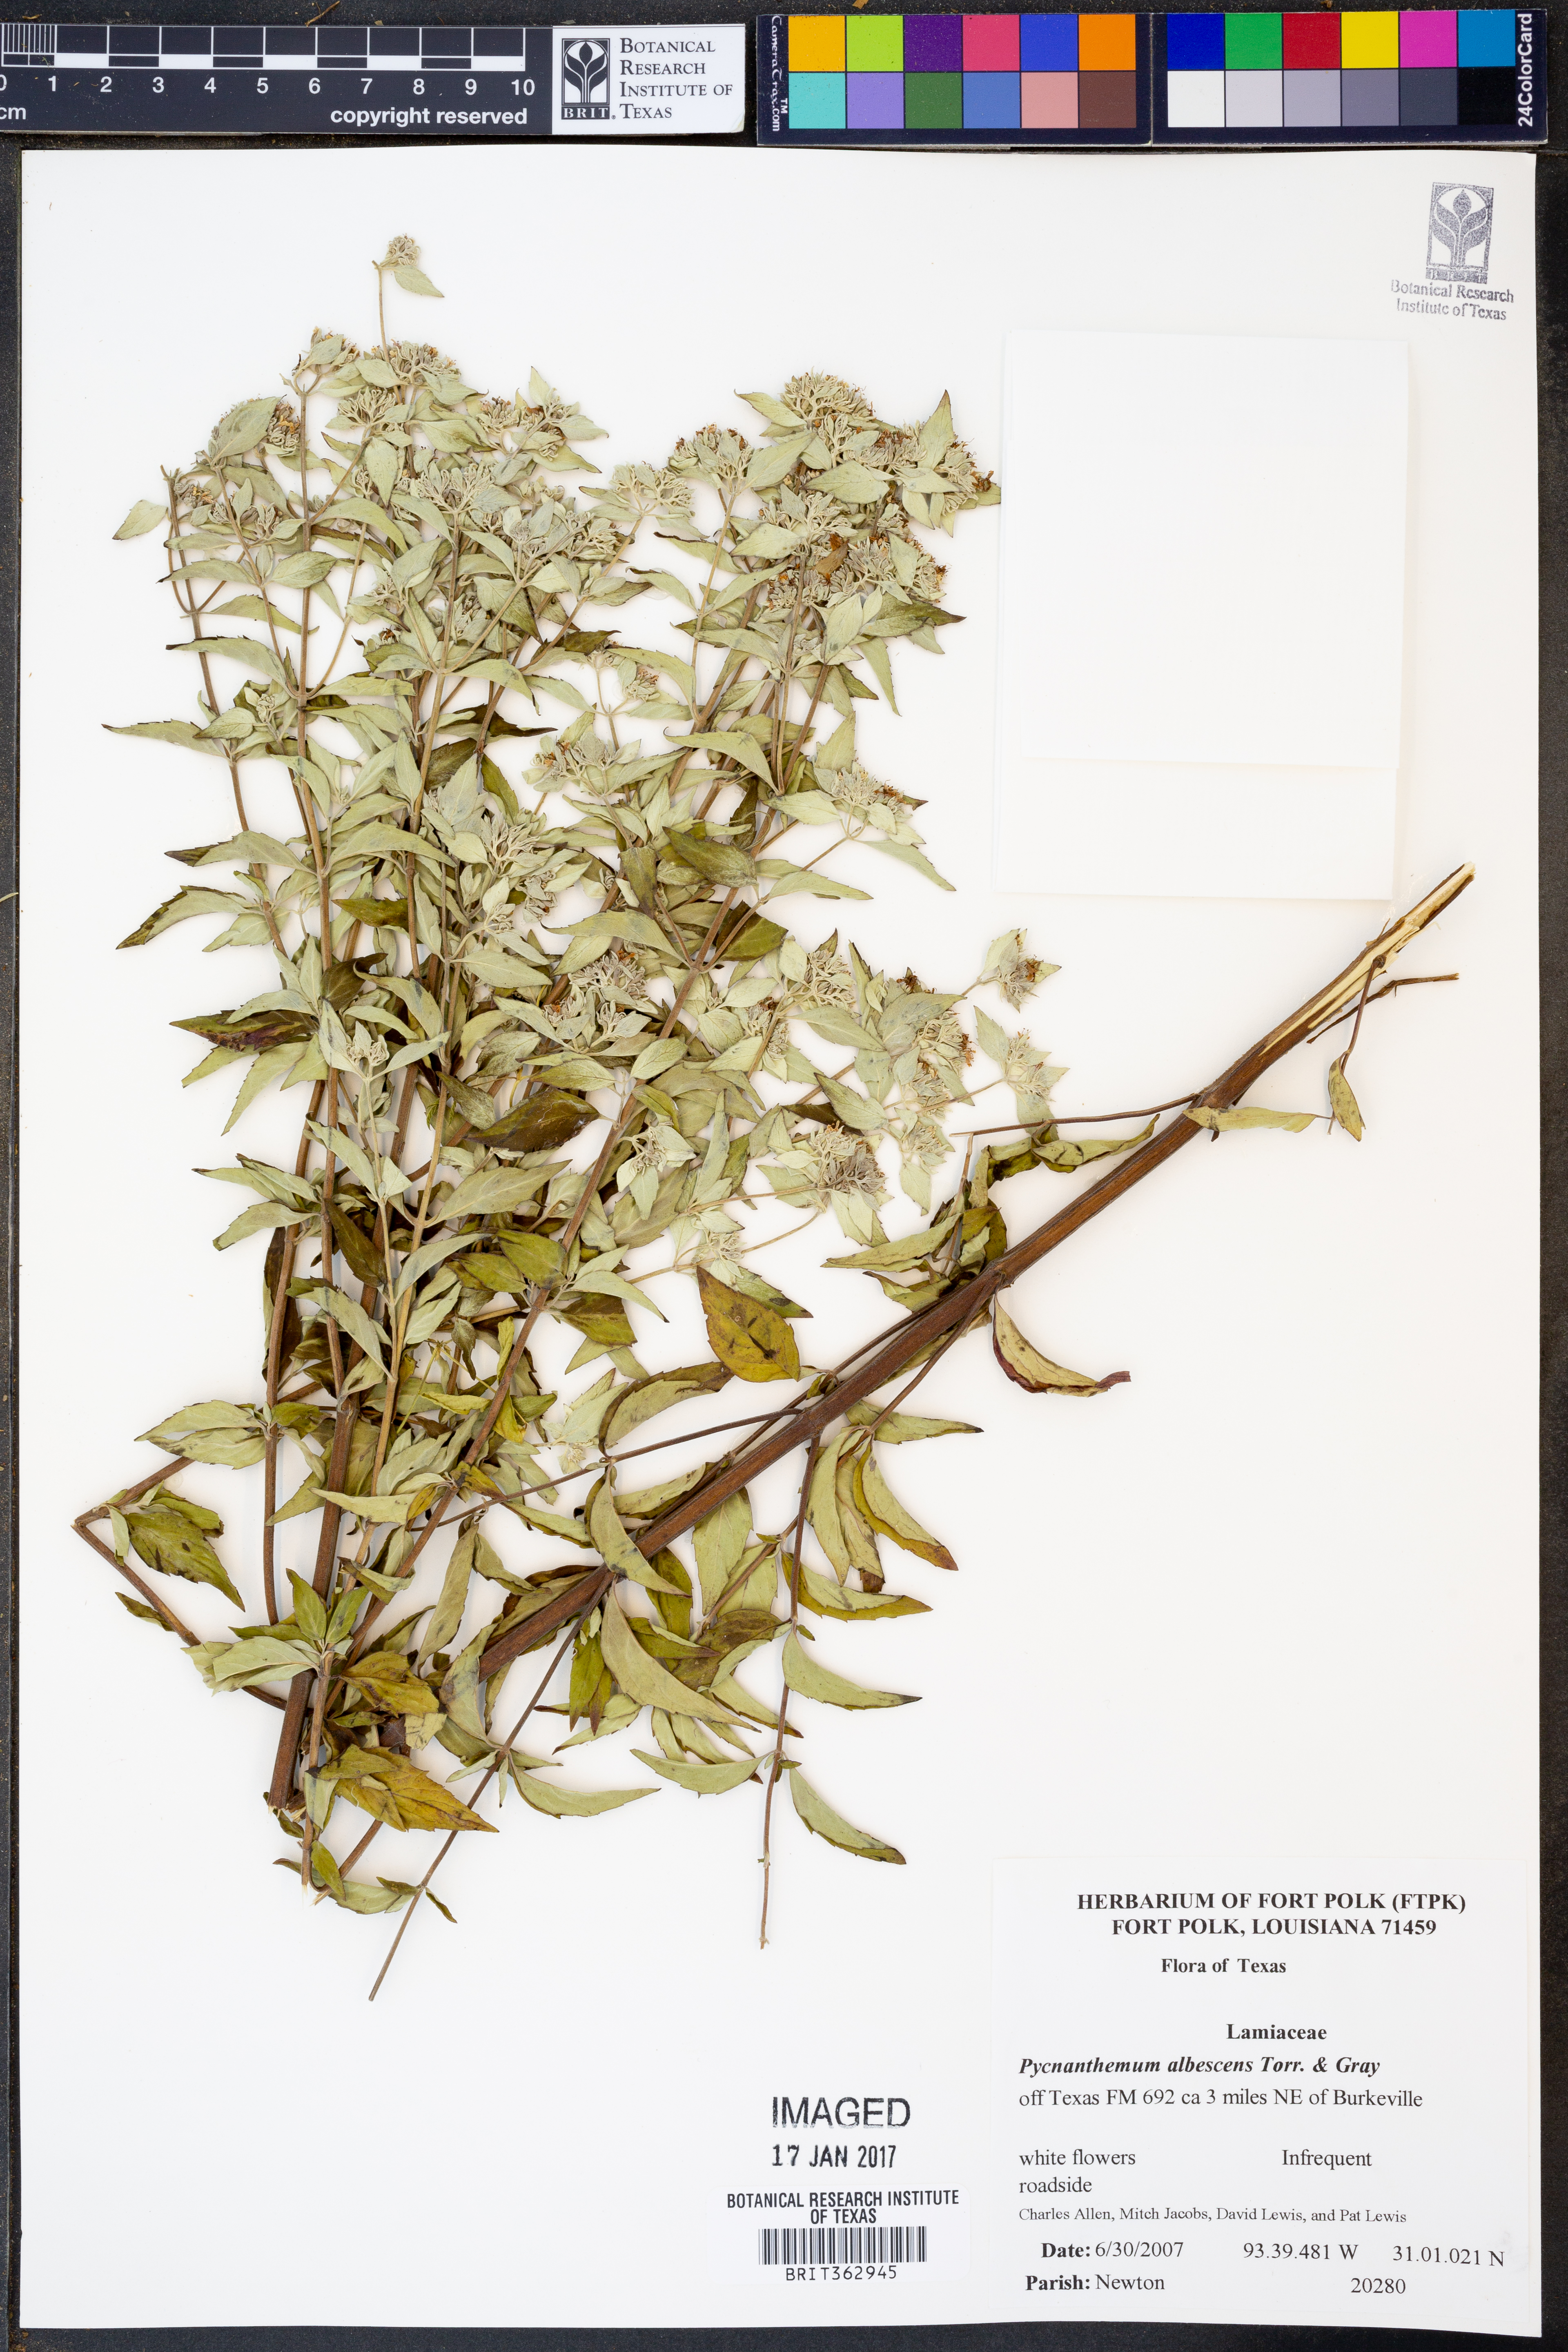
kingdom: Plantae
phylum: Tracheophyta
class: Magnoliopsida
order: Lamiales
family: Lamiaceae
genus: Pycnanthemum
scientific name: Pycnanthemum albescens
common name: White-leaf mountain-mint
